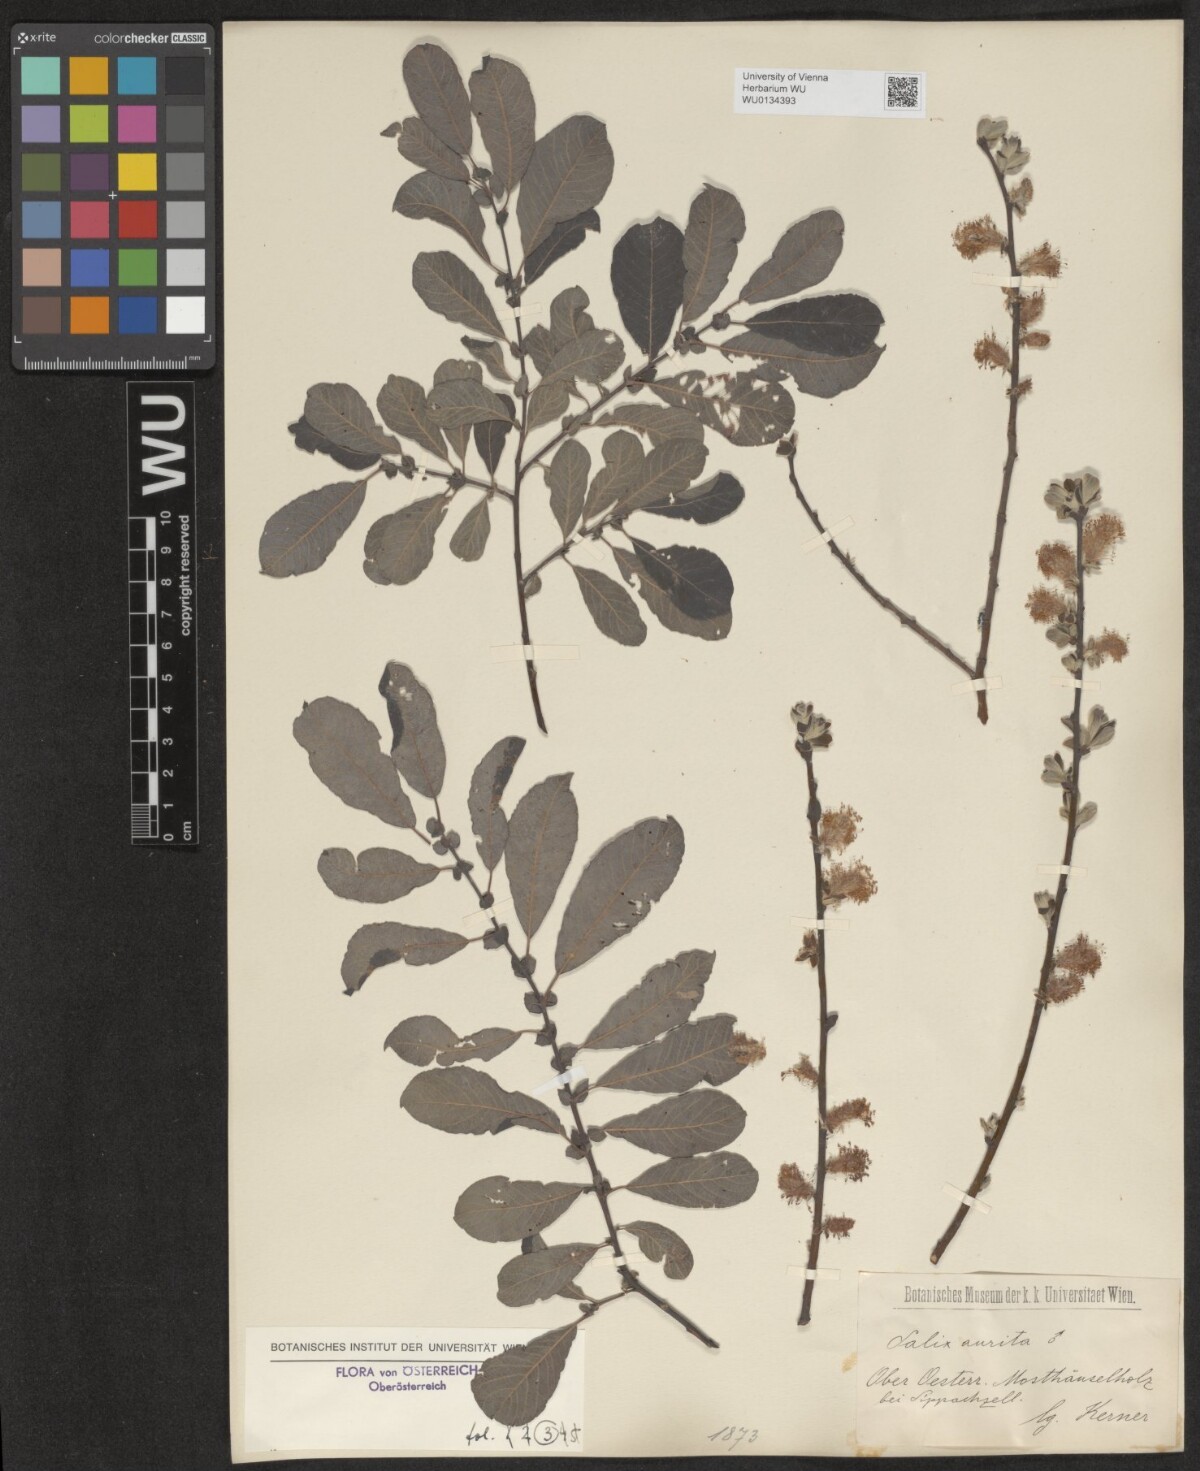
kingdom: Plantae
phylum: Tracheophyta
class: Magnoliopsida
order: Malpighiales
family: Salicaceae
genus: Salix
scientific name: Salix aurita
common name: Eared willow
